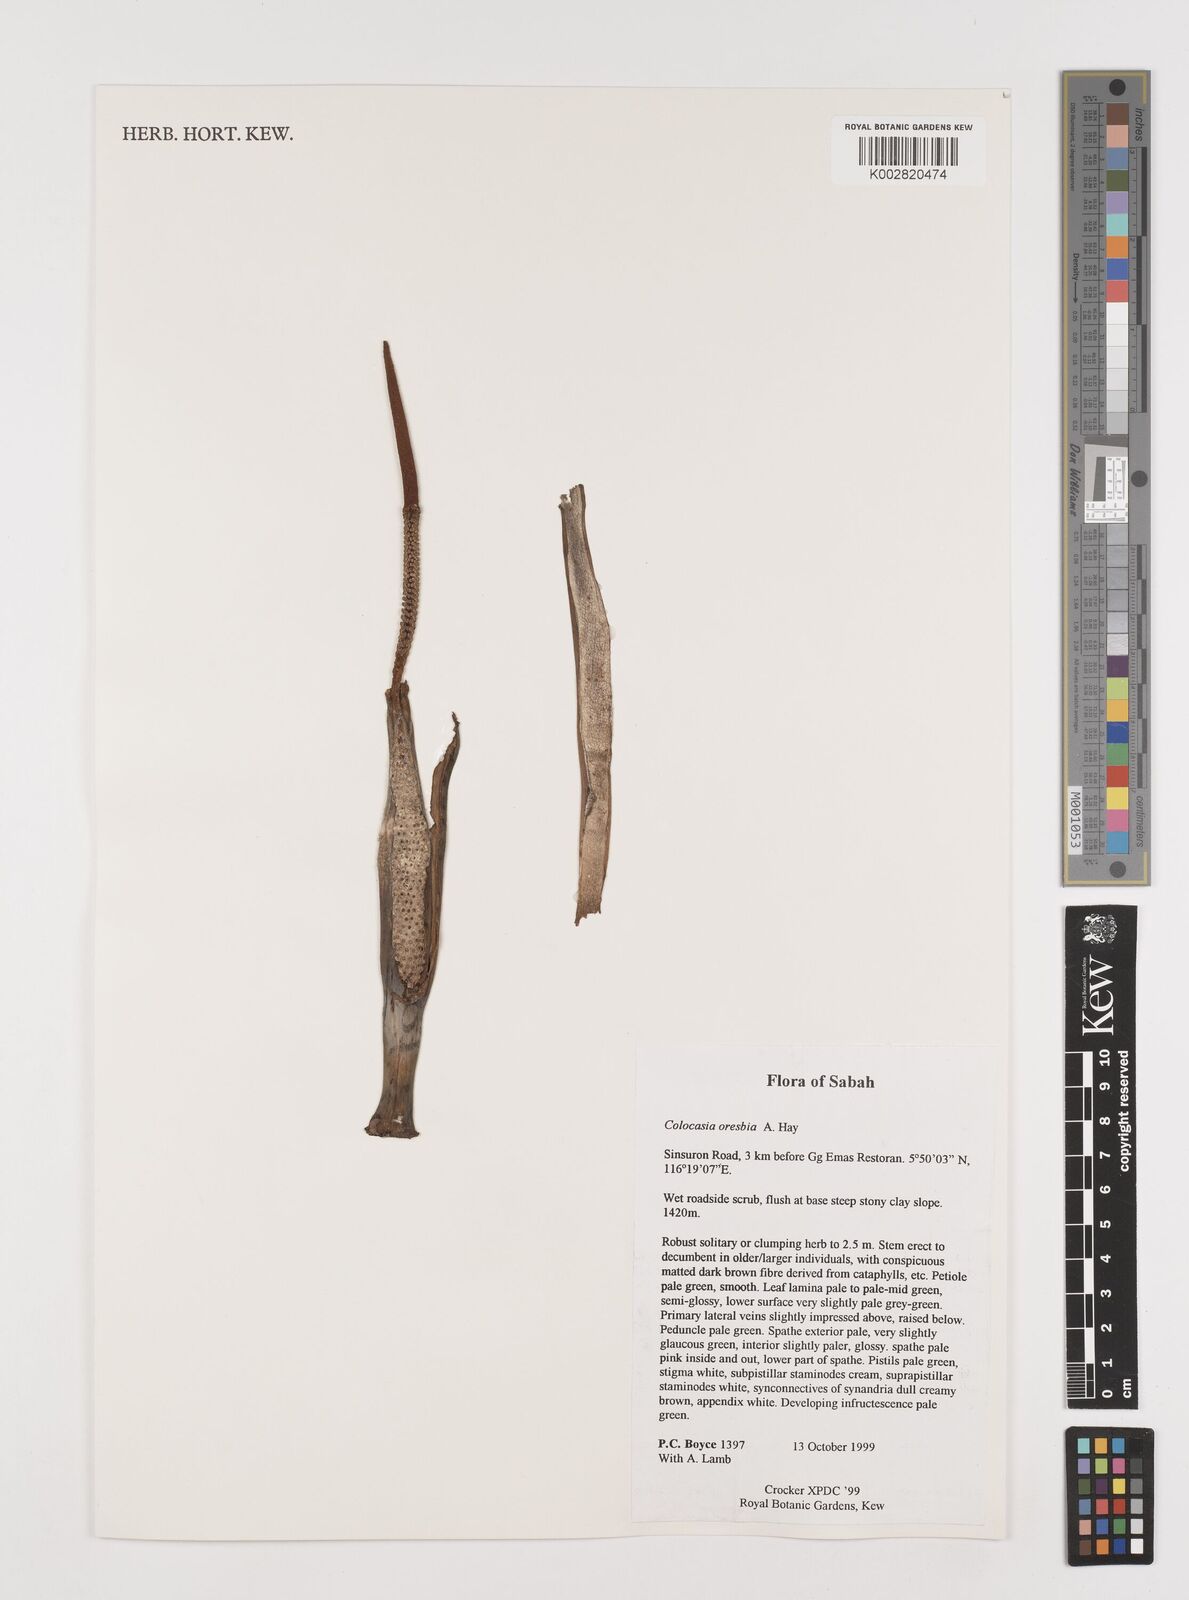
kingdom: Plantae
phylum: Tracheophyta
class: Liliopsida
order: Alismatales
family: Araceae
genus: Colocasia
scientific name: Colocasia oresbia
